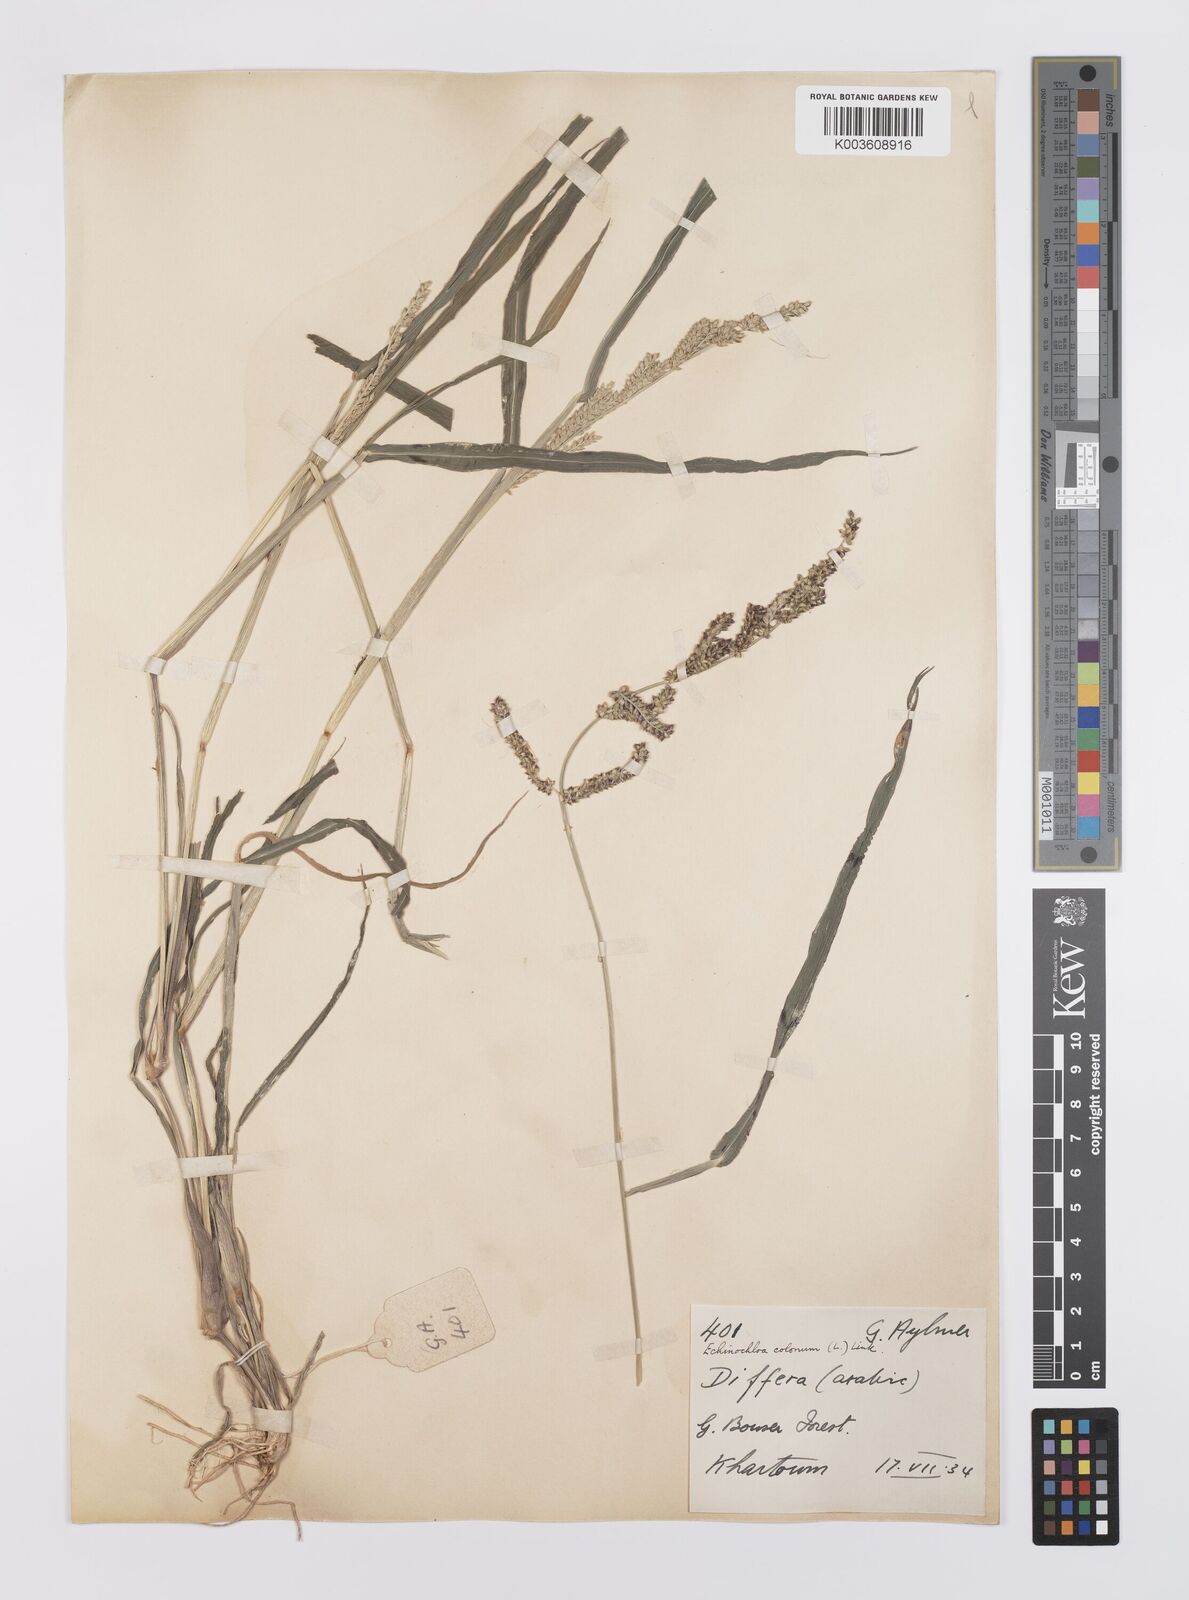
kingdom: Plantae
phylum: Tracheophyta
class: Liliopsida
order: Poales
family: Poaceae
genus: Echinochloa
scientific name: Echinochloa colonum
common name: Jungle rice
